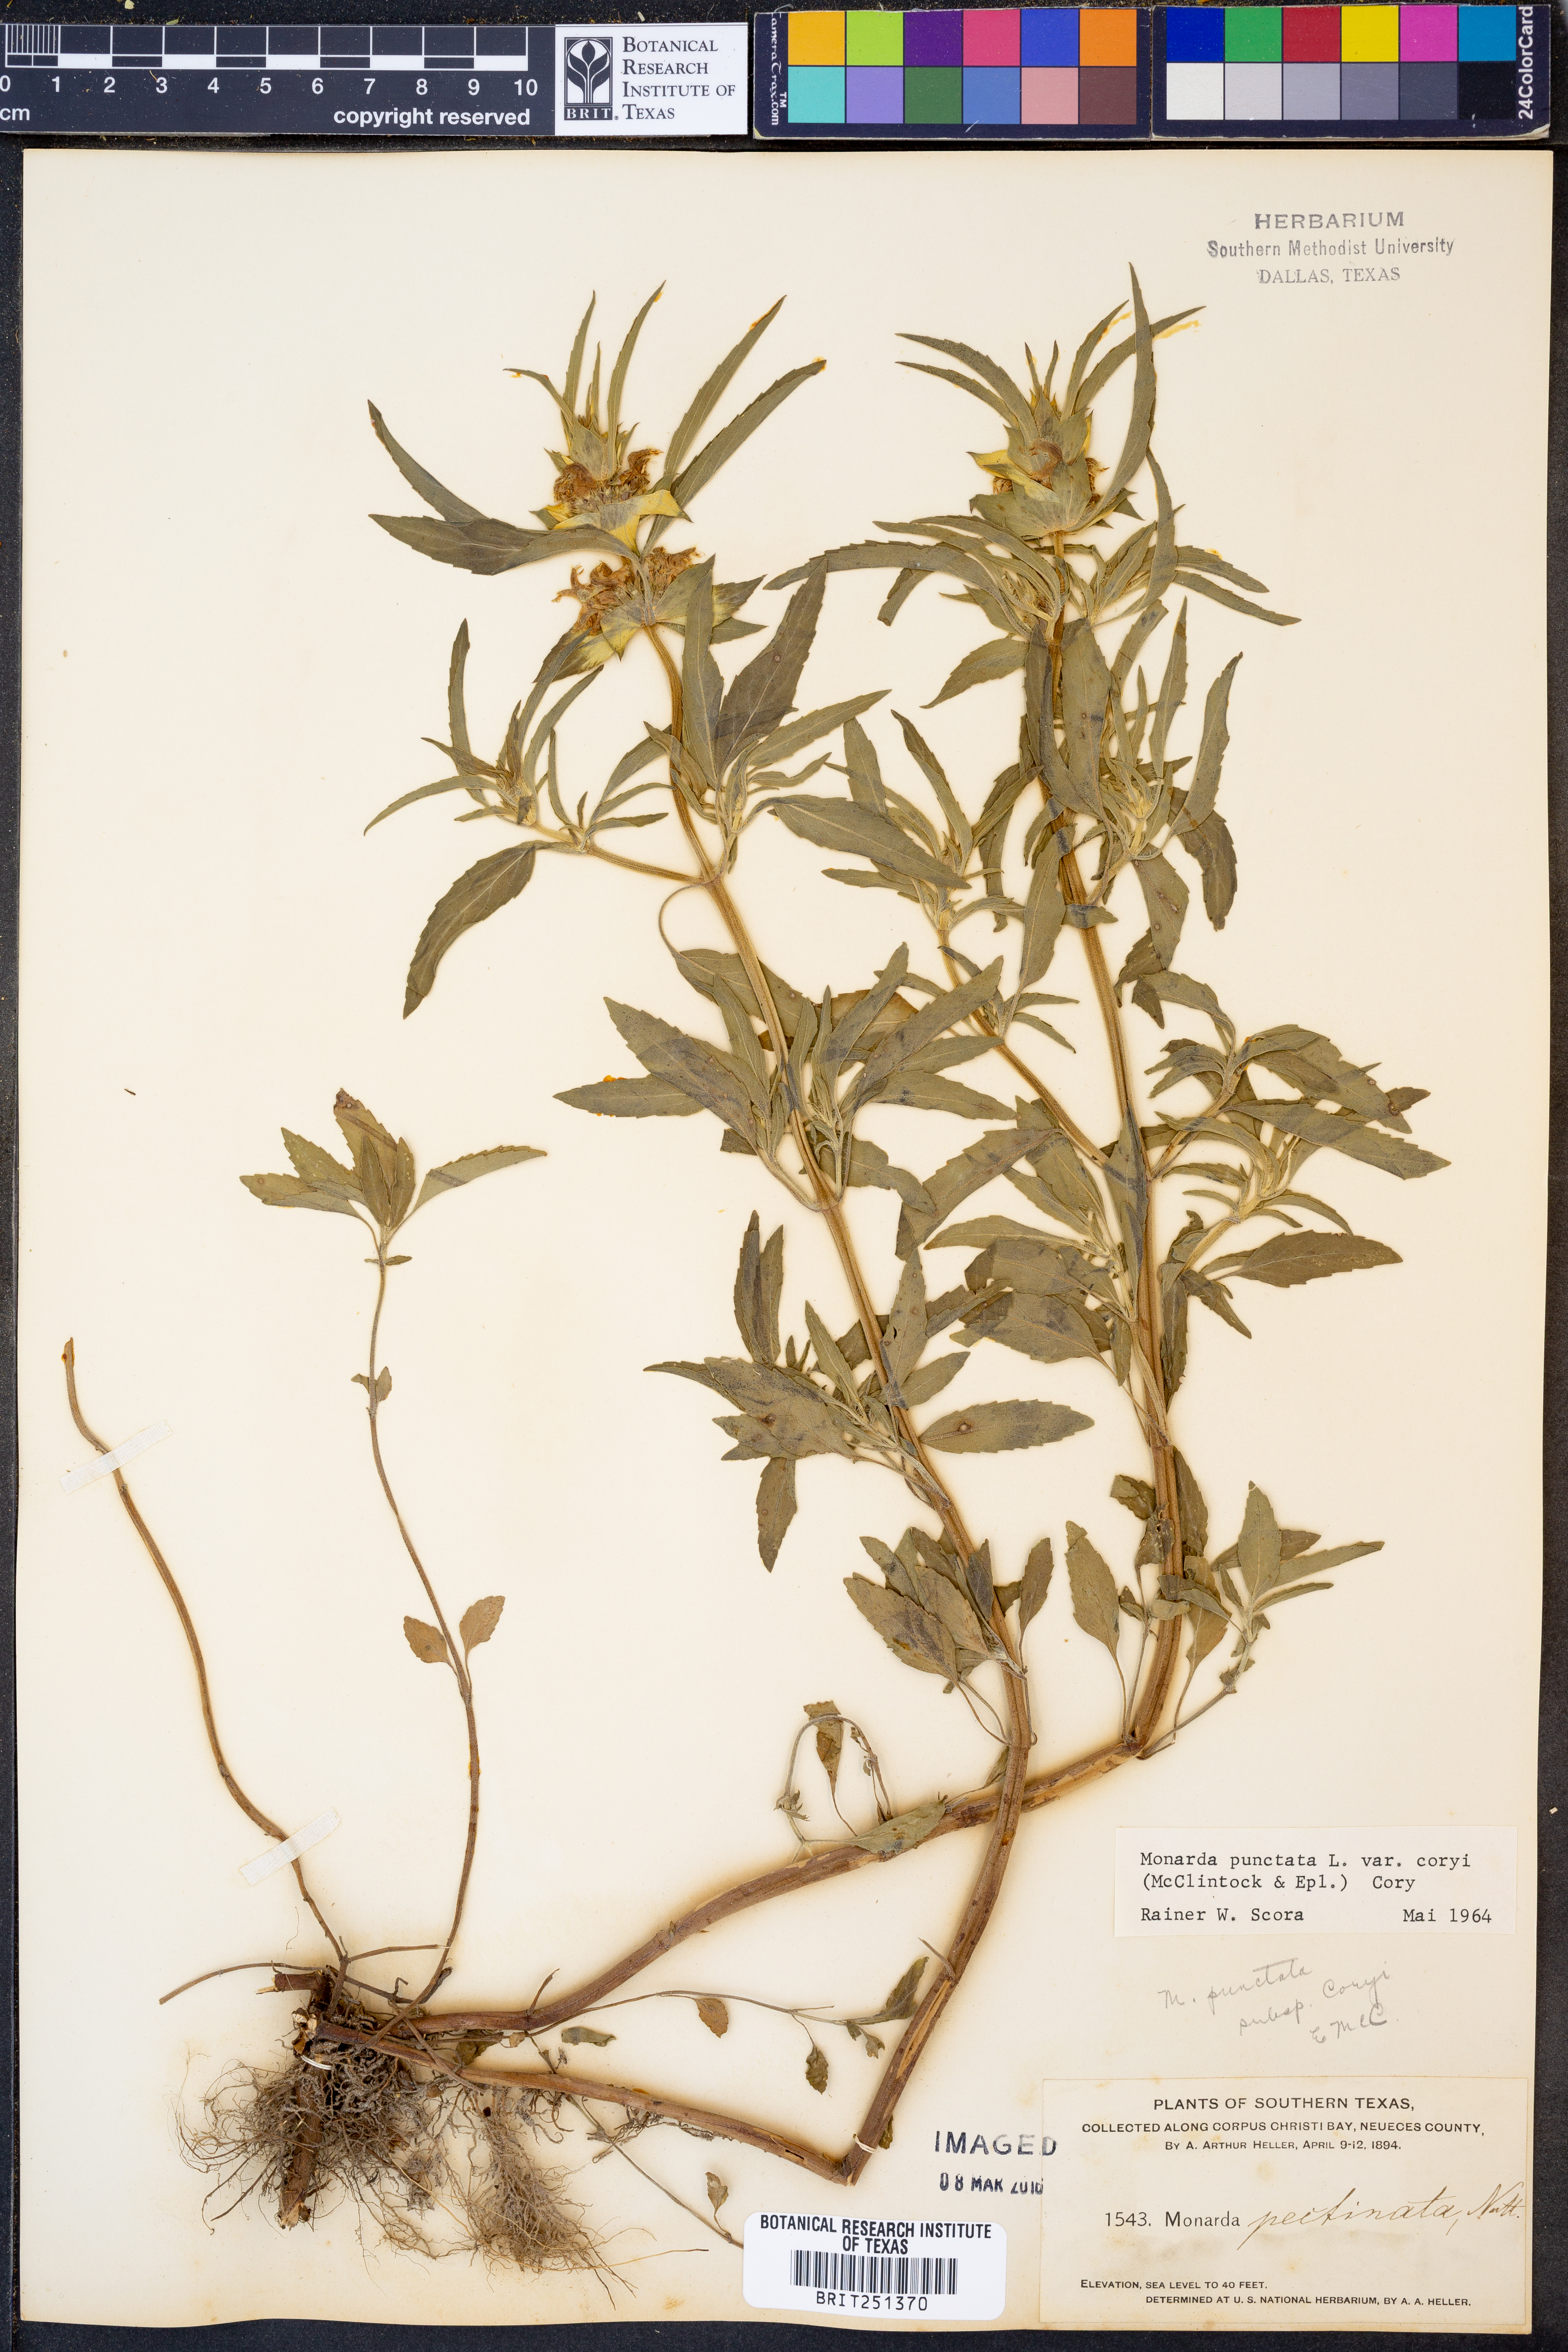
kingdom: Plantae
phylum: Tracheophyta
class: Magnoliopsida
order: Lamiales
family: Lamiaceae
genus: Monarda
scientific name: Monarda punctata
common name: Dotted monarda
